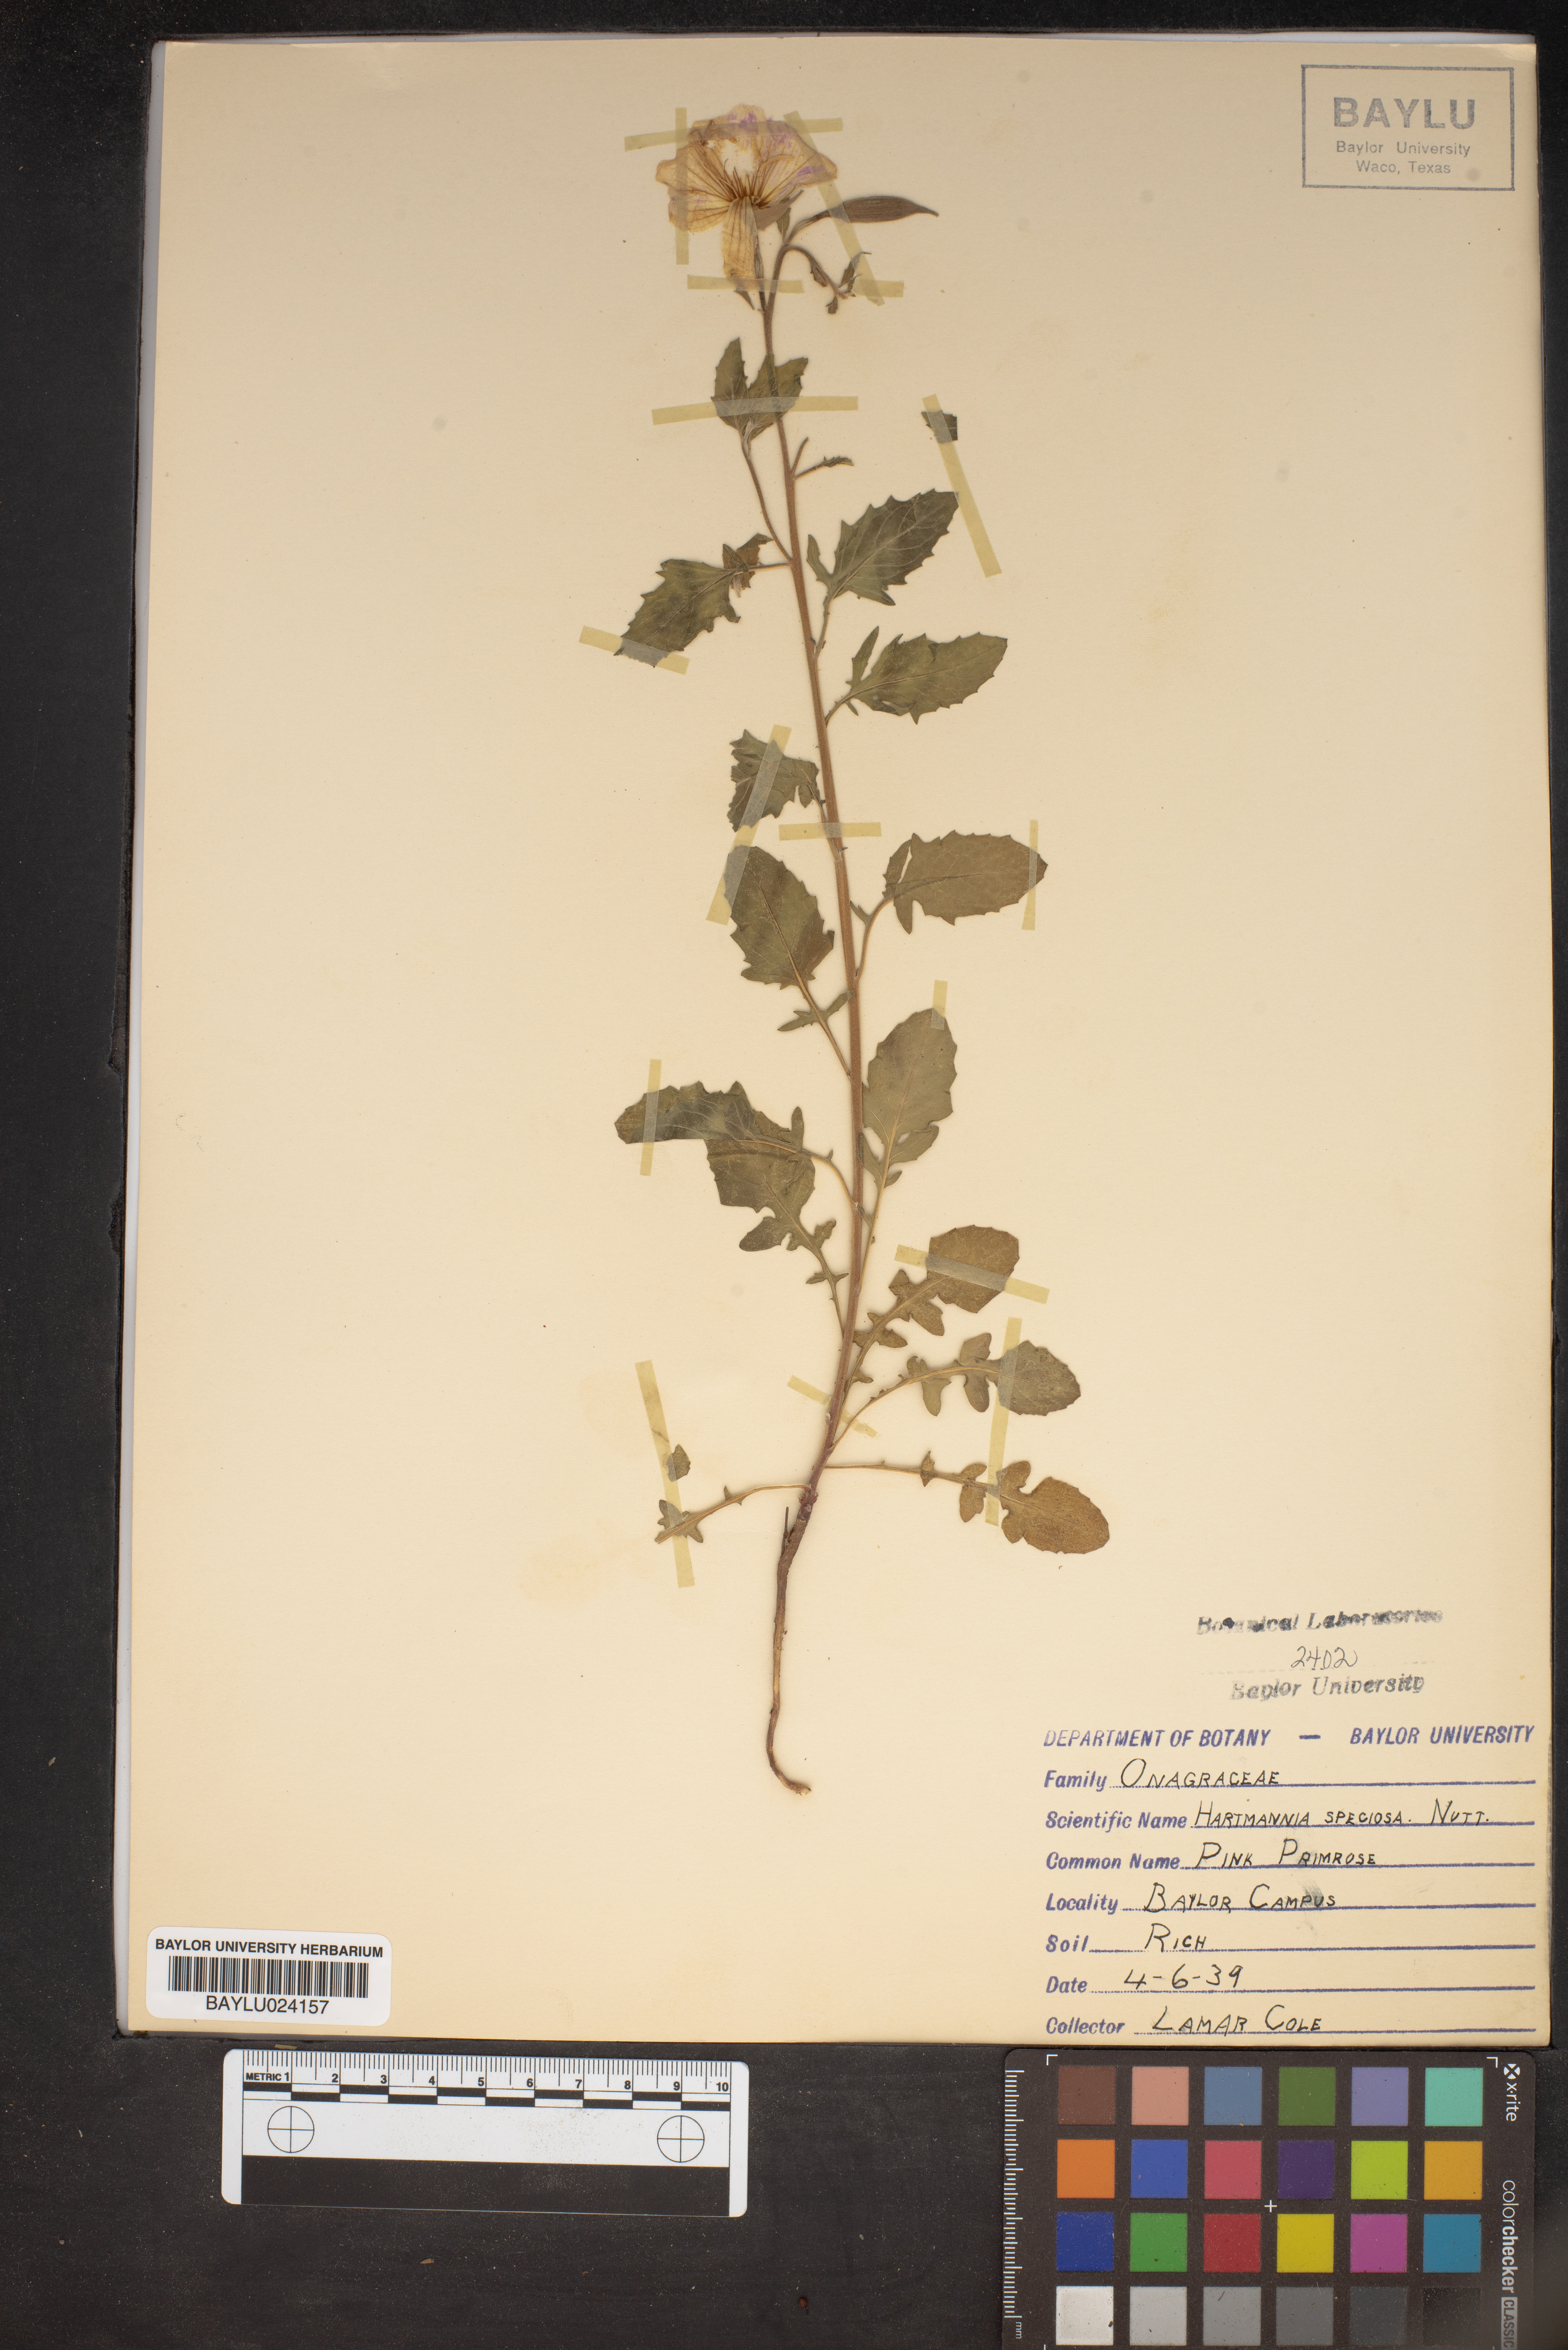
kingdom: Plantae
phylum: Tracheophyta
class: Magnoliopsida
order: Myrtales
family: Onagraceae
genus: Oenothera
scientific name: Oenothera speciosa
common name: White evening-primrose
